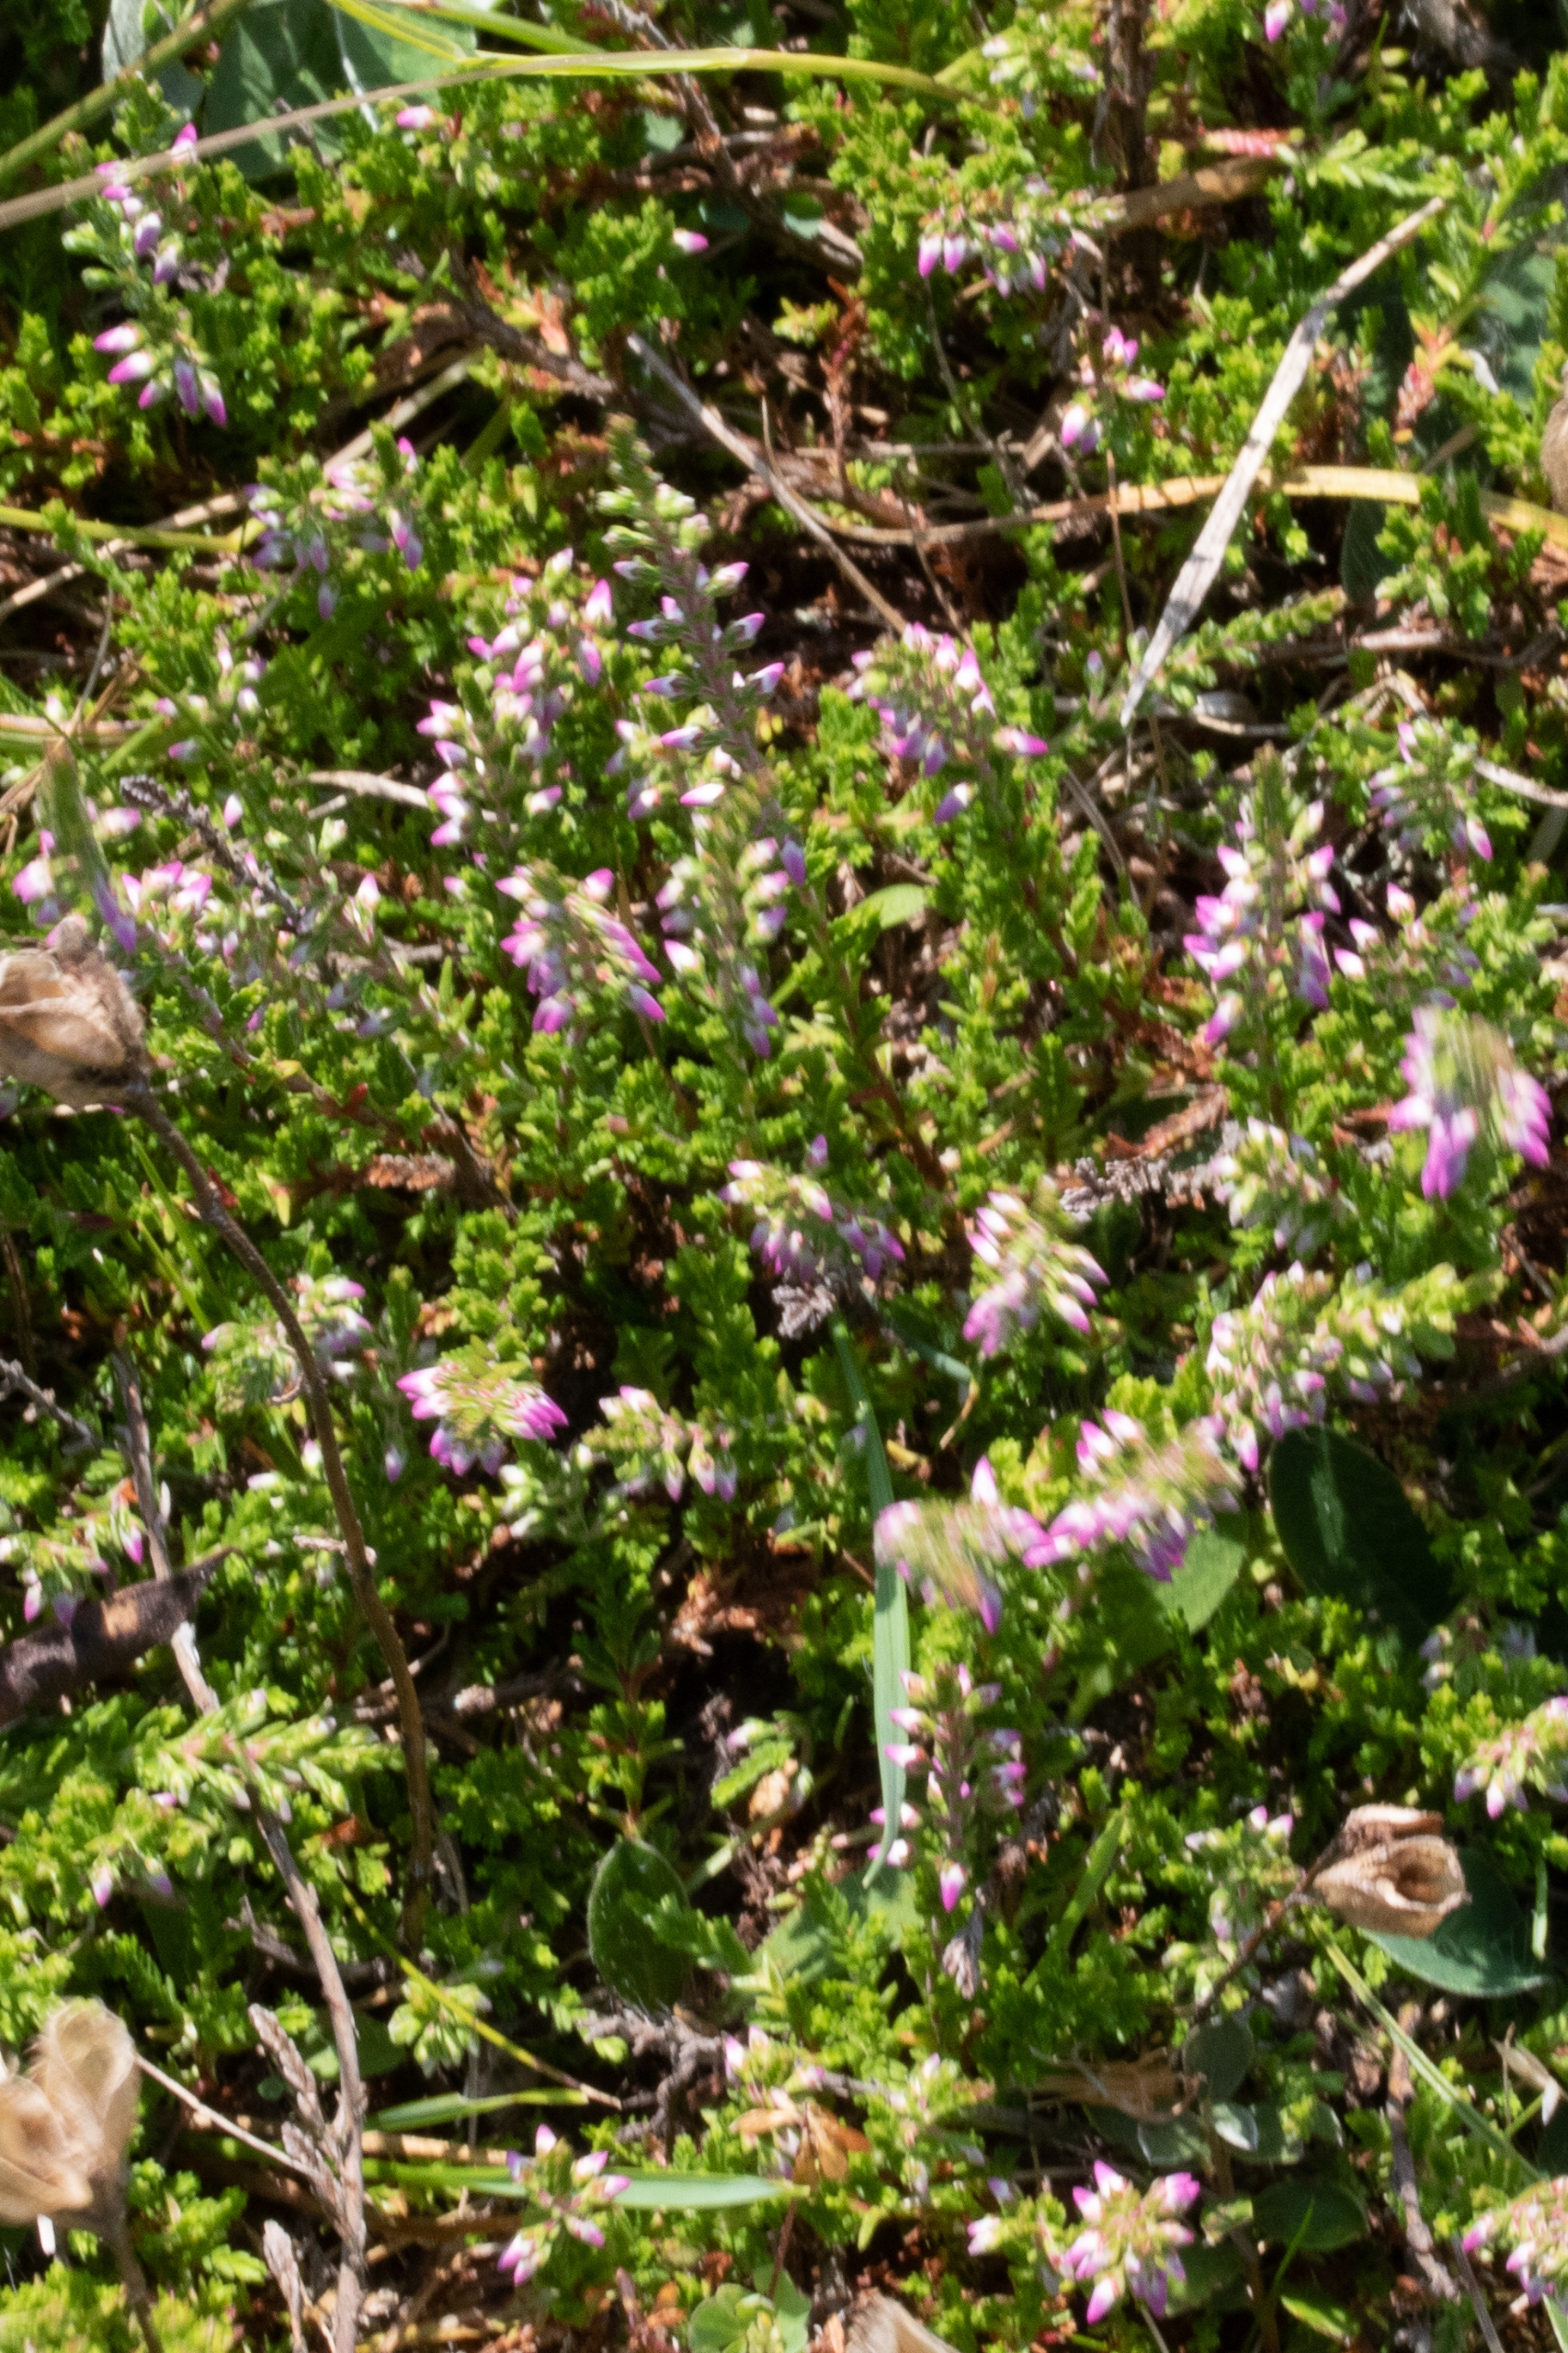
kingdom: Plantae
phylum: Tracheophyta
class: Magnoliopsida
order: Ericales
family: Ericaceae
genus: Calluna
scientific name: Calluna vulgaris
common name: Hedelyng
